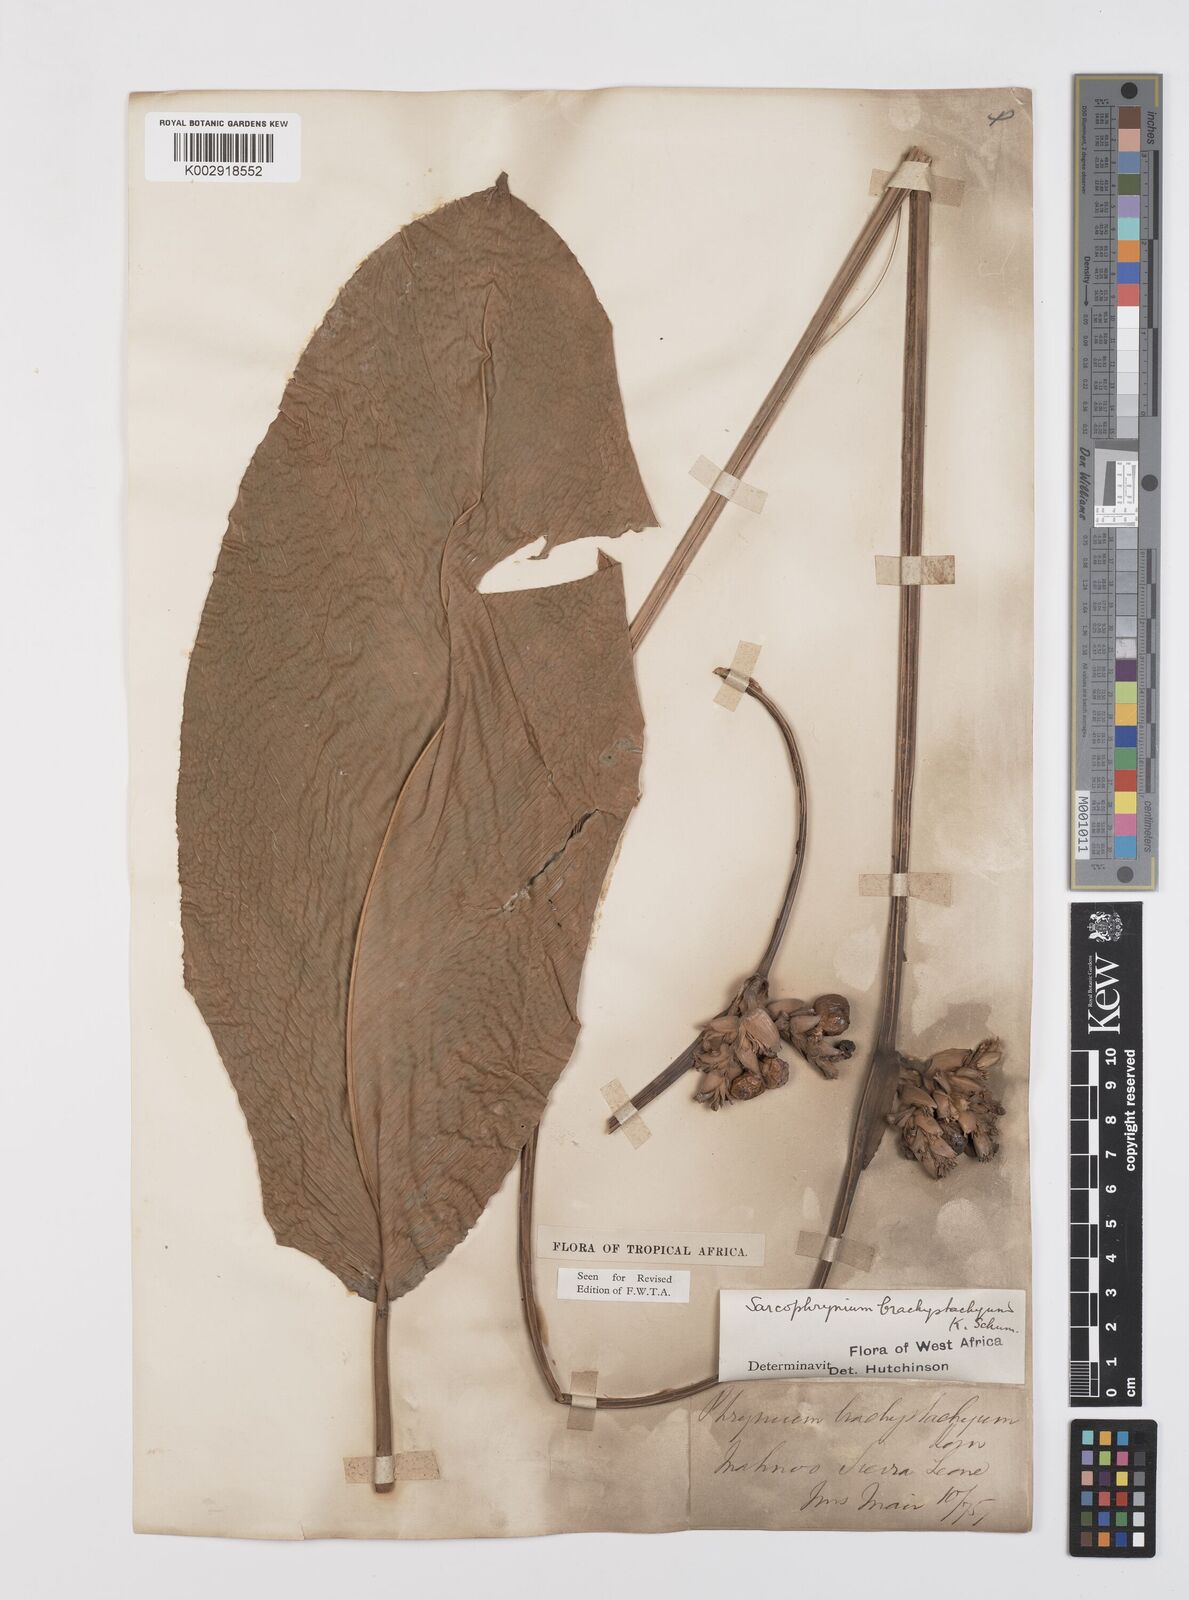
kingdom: Plantae
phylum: Tracheophyta
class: Liliopsida
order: Zingiberales
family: Marantaceae
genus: Sarcophrynium
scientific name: Sarcophrynium brachystachyum
